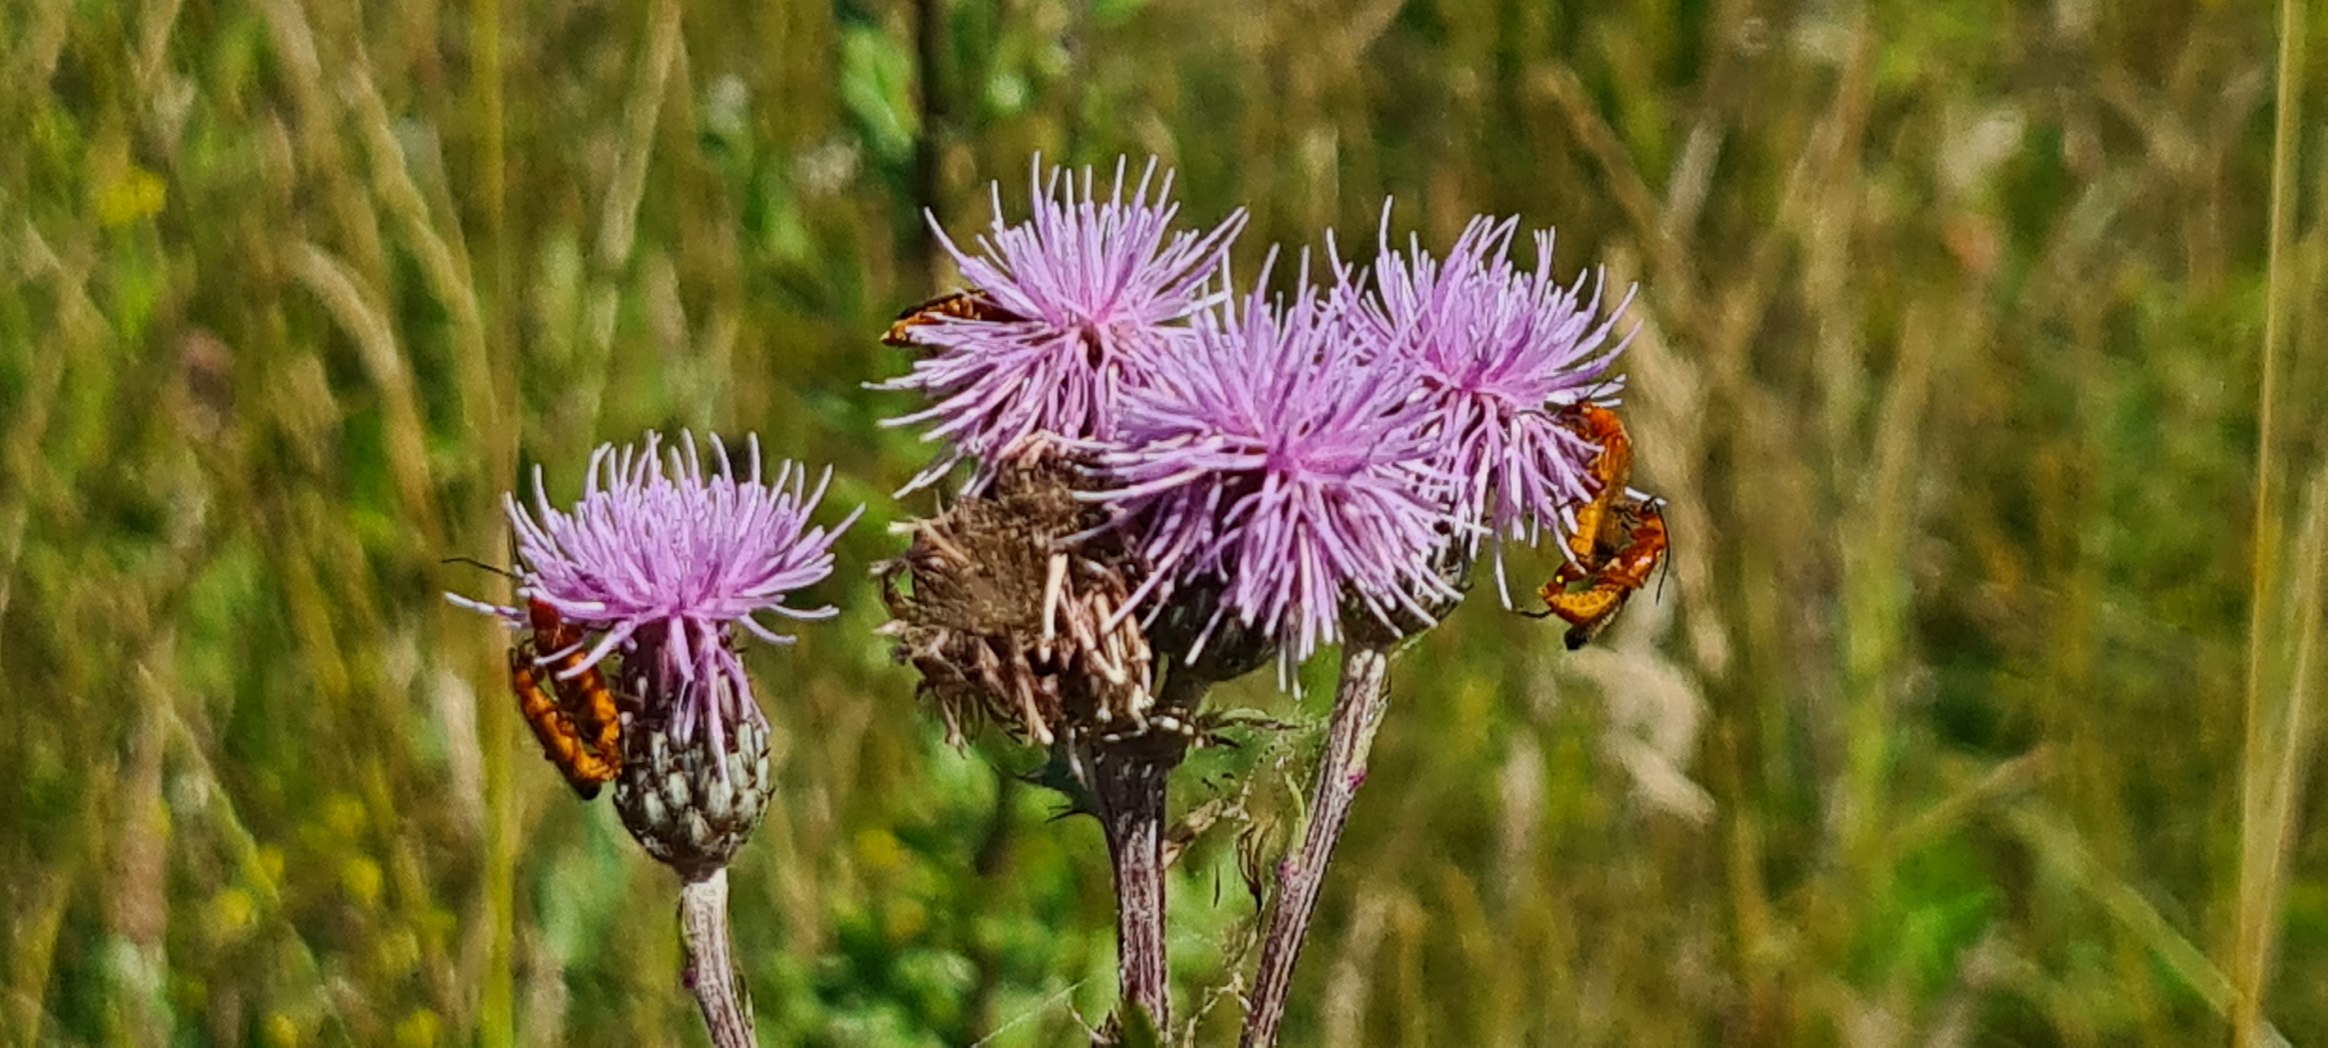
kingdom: Plantae
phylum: Tracheophyta
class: Magnoliopsida
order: Asterales
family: Asteraceae
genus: Cirsium
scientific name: Cirsium arvense
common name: Ager-tidsel
